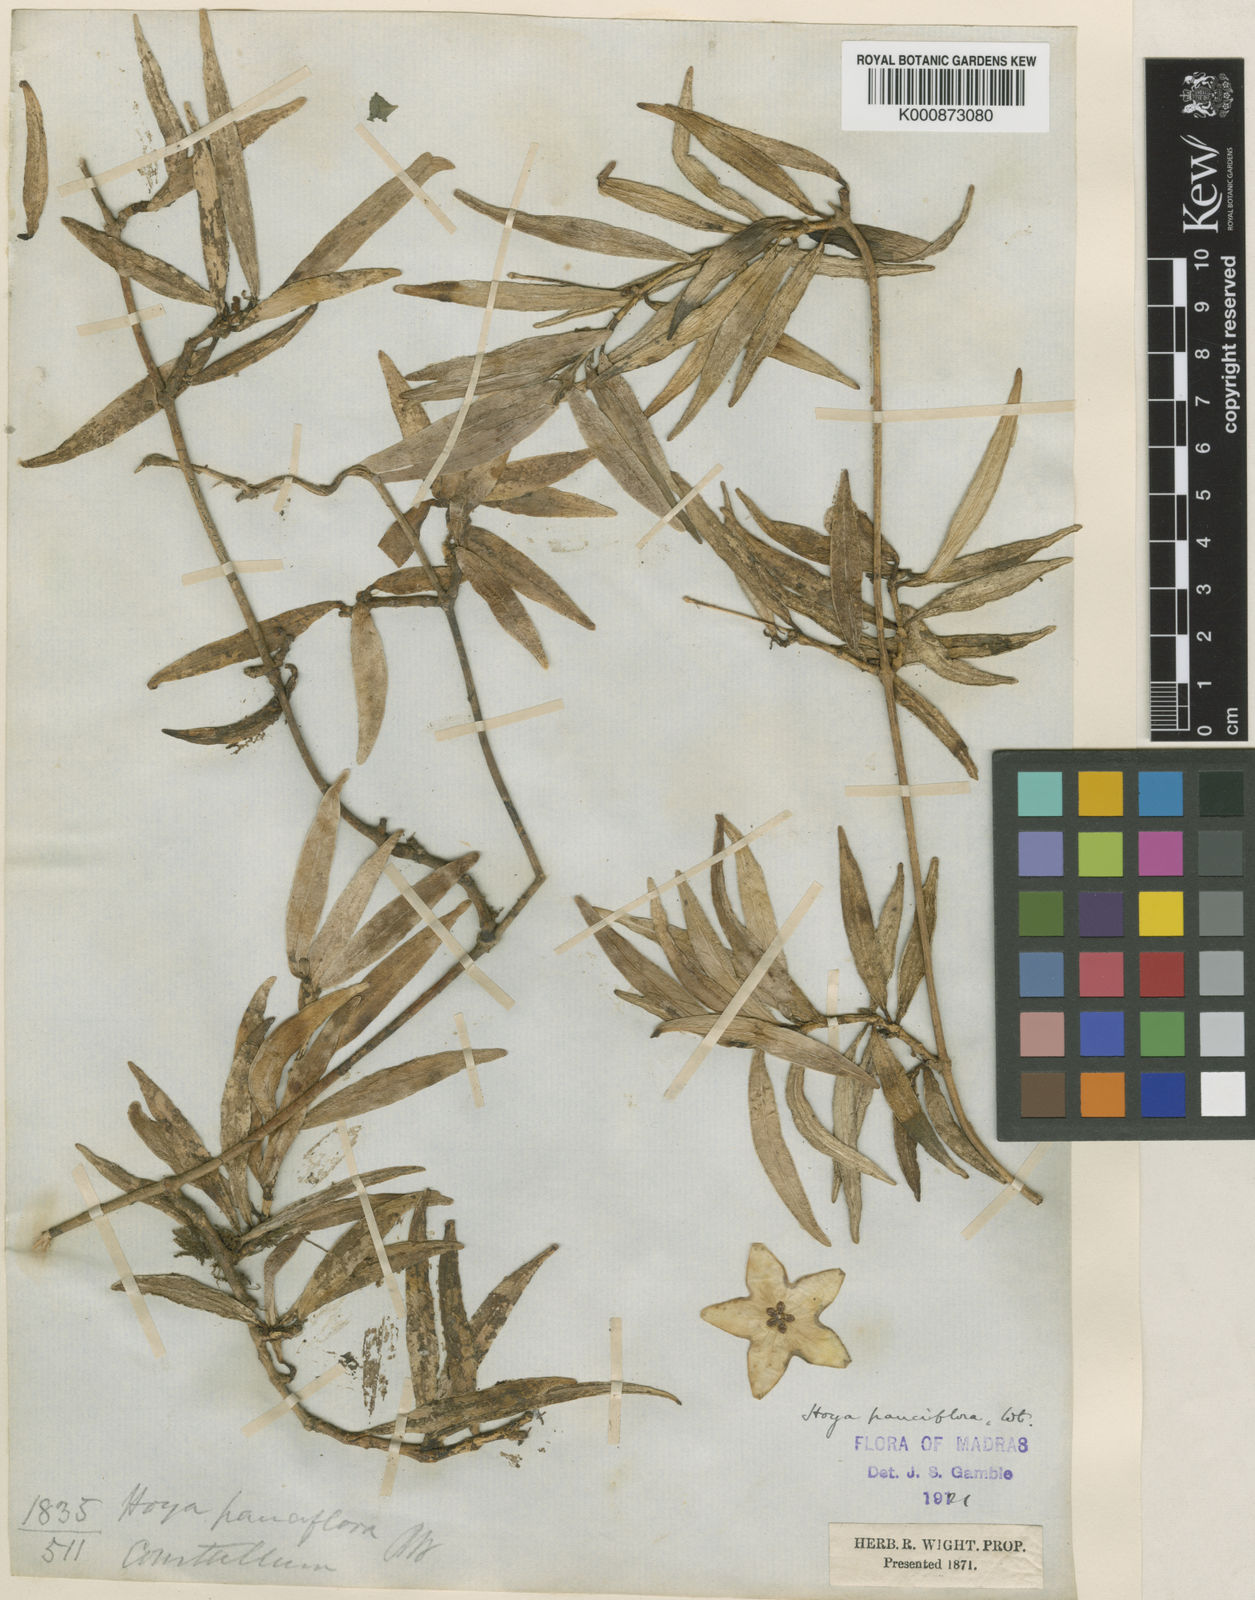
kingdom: Plantae
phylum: Tracheophyta
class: Magnoliopsida
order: Gentianales
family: Apocynaceae
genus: Hoya
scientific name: Hoya pauciflora
